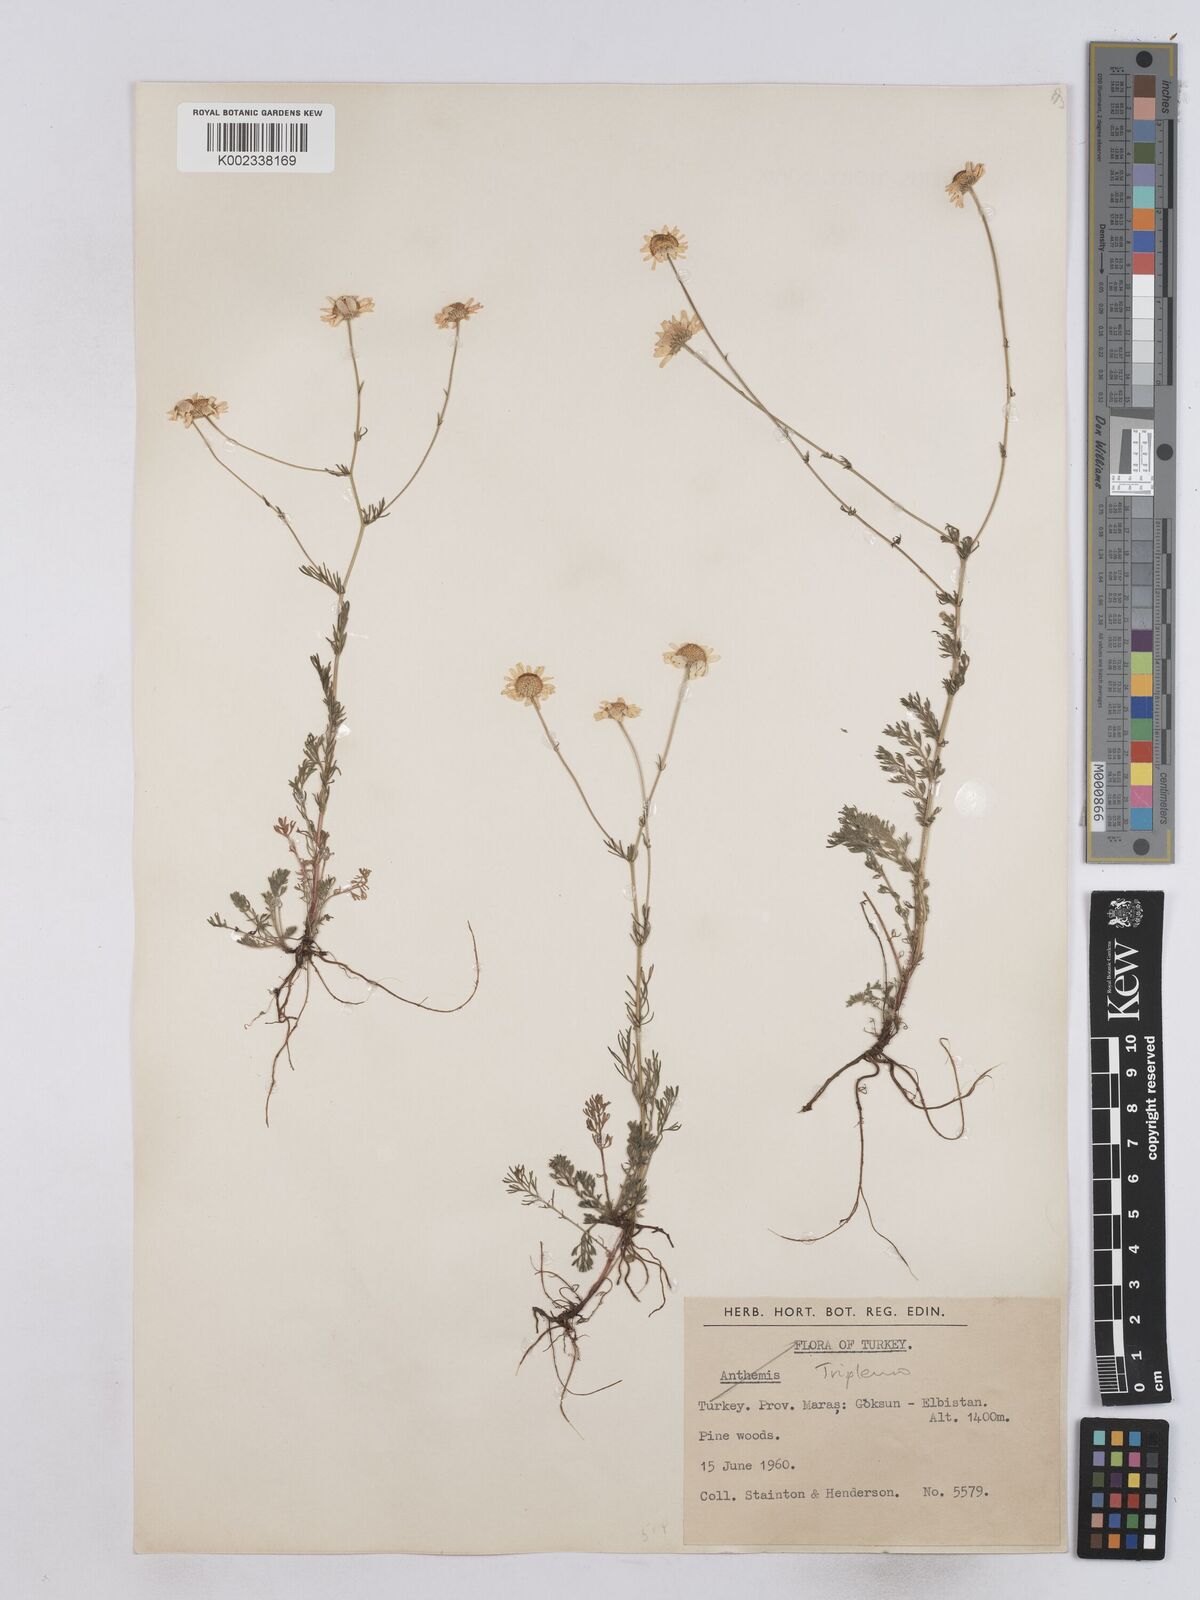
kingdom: Plantae
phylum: Tracheophyta
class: Magnoliopsida
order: Asterales
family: Asteraceae
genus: Matricaria
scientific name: Matricaria
